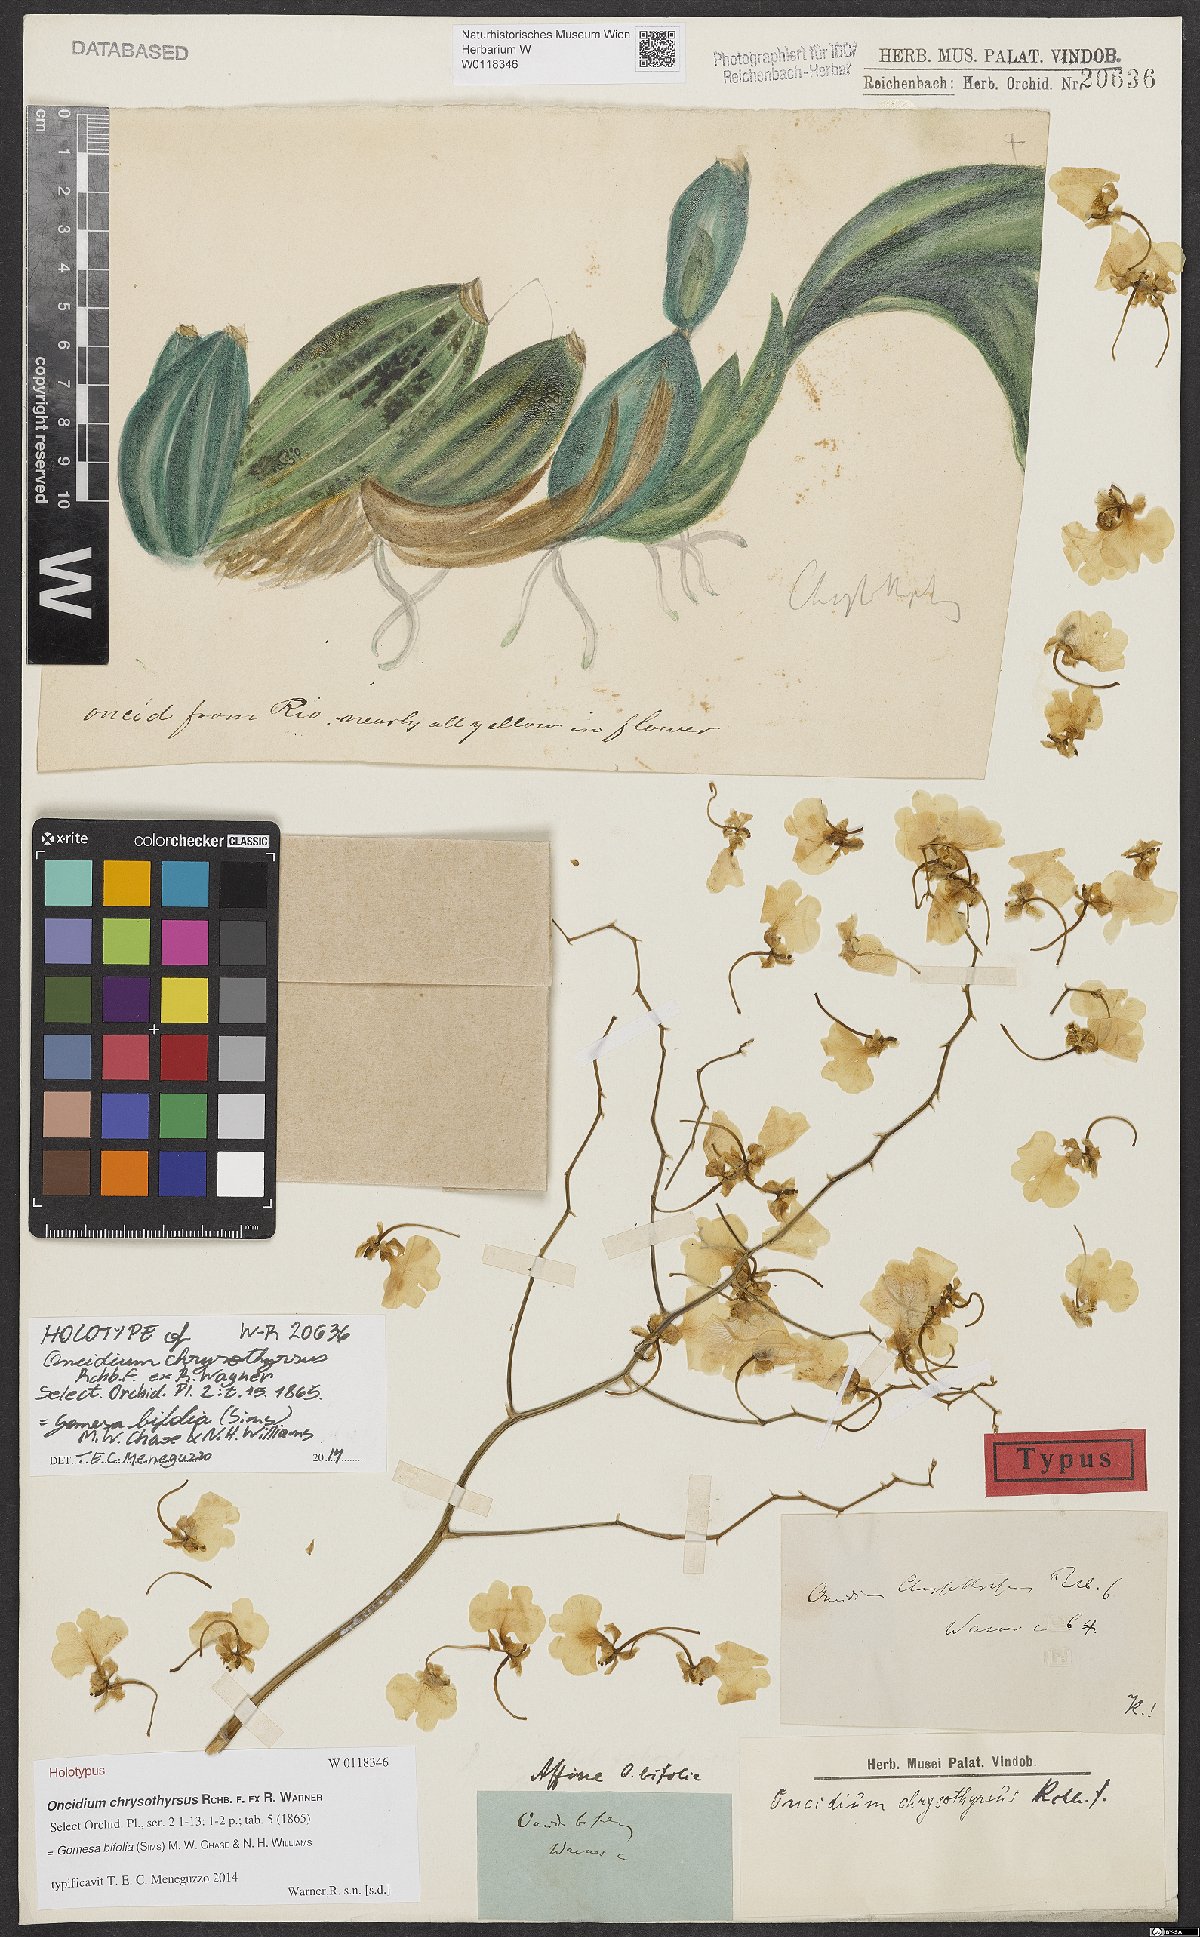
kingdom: Plantae
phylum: Tracheophyta
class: Liliopsida
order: Asparagales
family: Orchidaceae
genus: Gomesa
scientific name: Gomesa bifolia
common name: Dancing ladies
